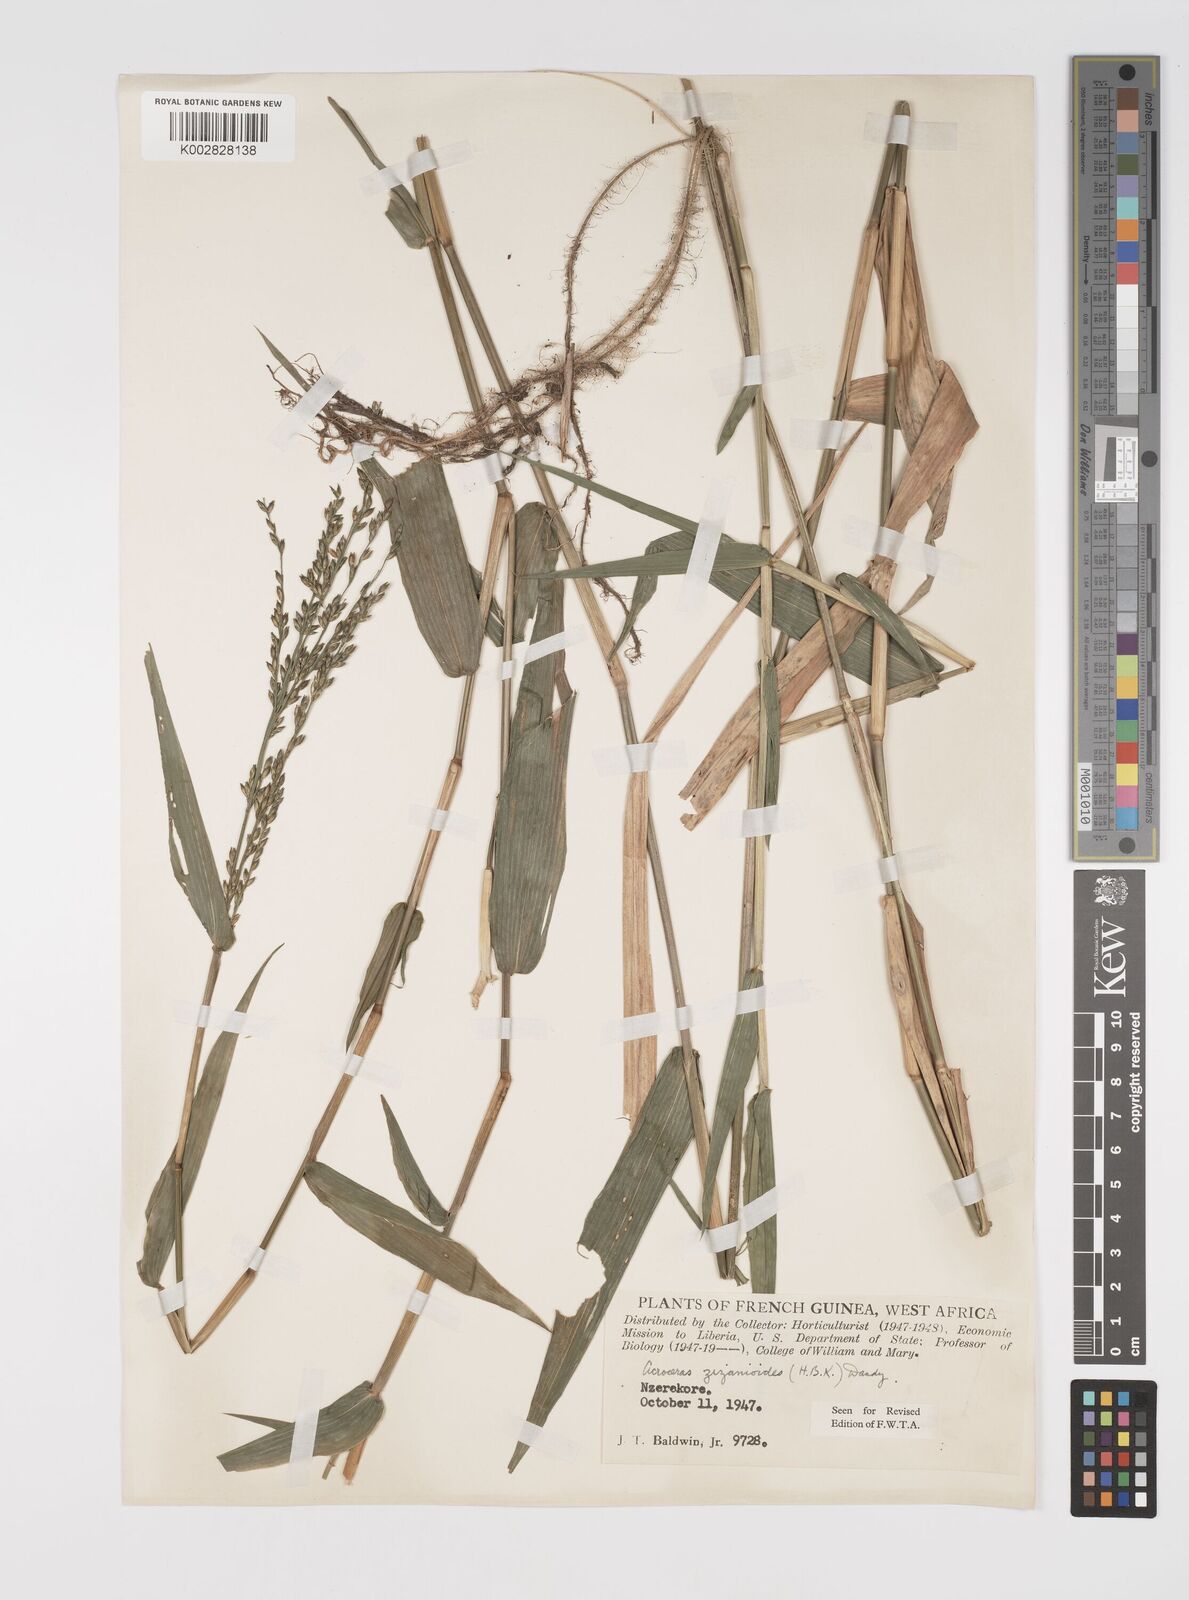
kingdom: Plantae
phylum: Tracheophyta
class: Liliopsida
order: Poales
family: Poaceae
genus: Acroceras
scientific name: Acroceras zizanioides
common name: Oat grass
